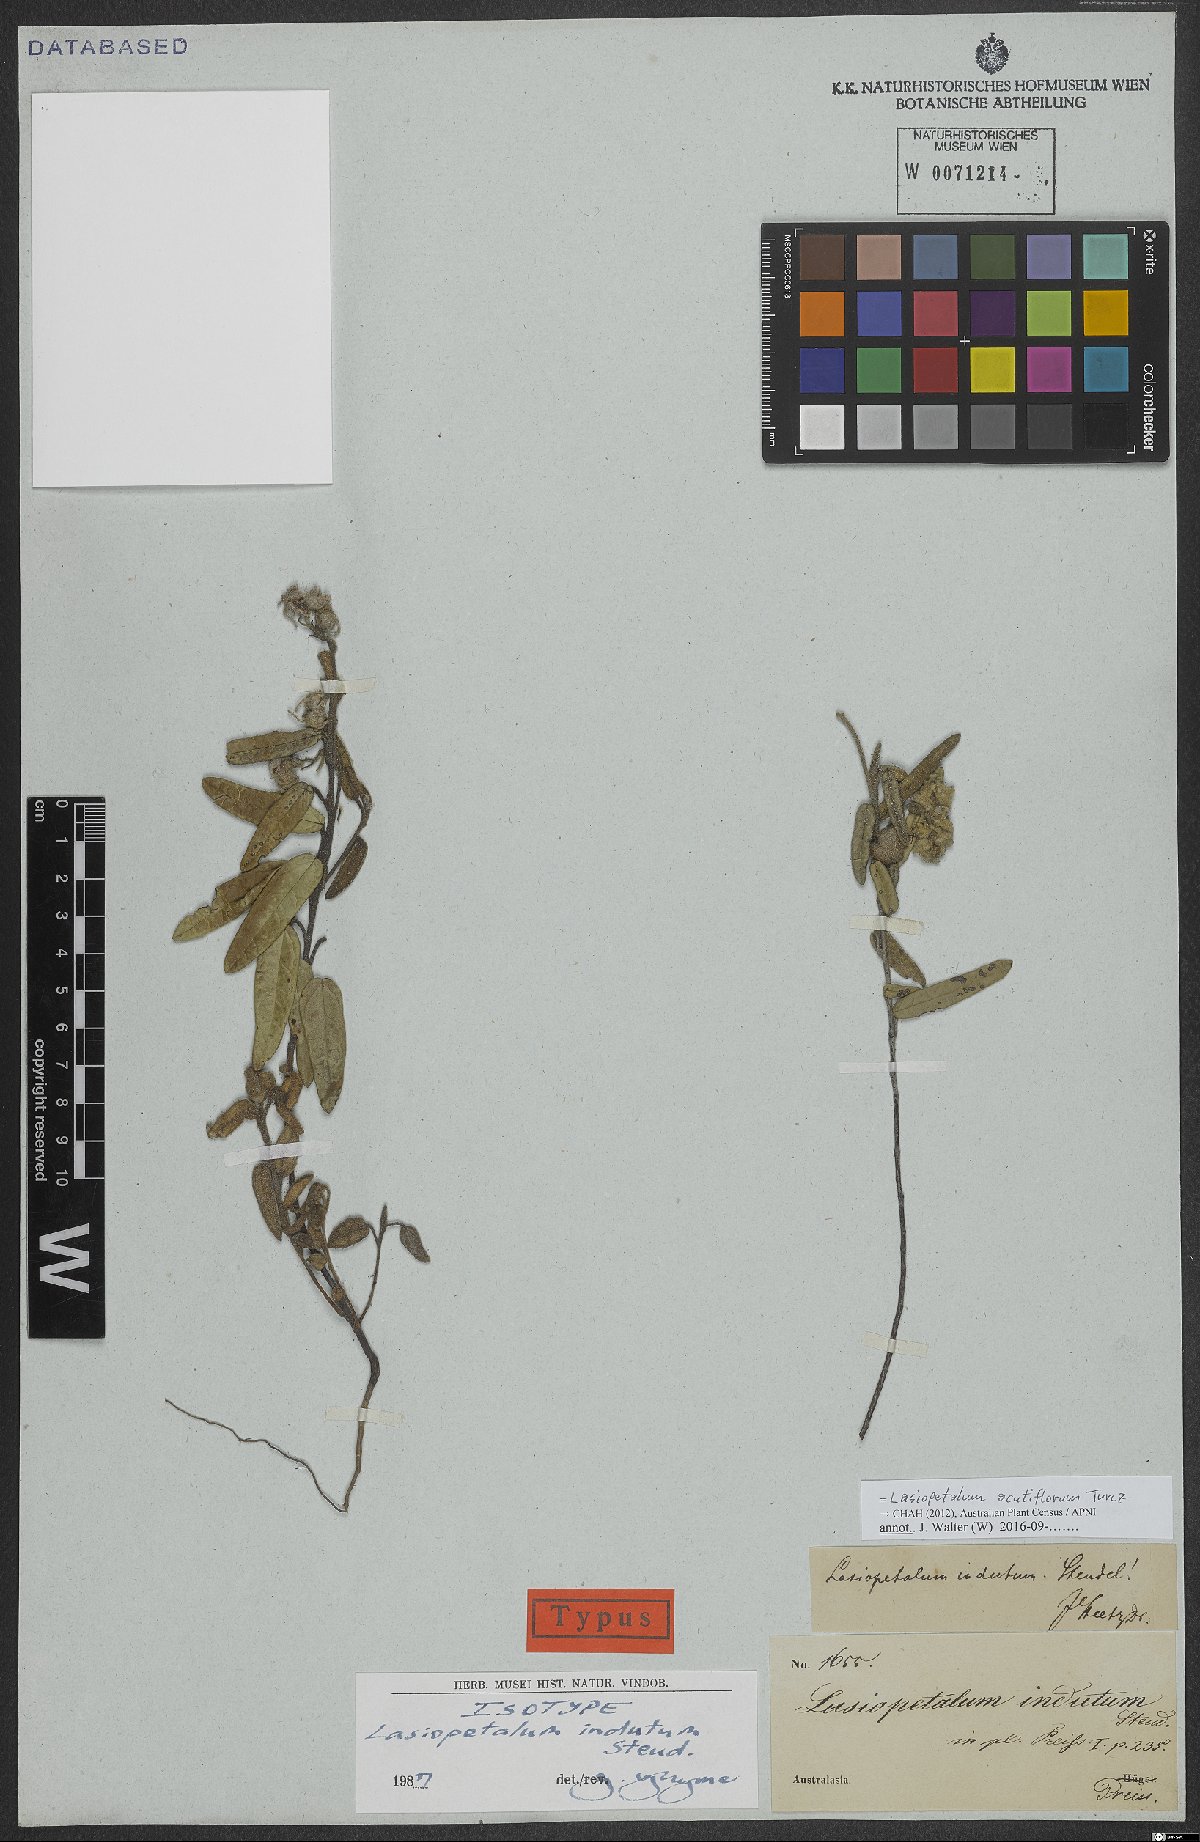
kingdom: Plantae
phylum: Tracheophyta
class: Magnoliopsida
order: Malvales
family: Malvaceae
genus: Lasiopetalum
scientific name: Lasiopetalum oldfieldii
